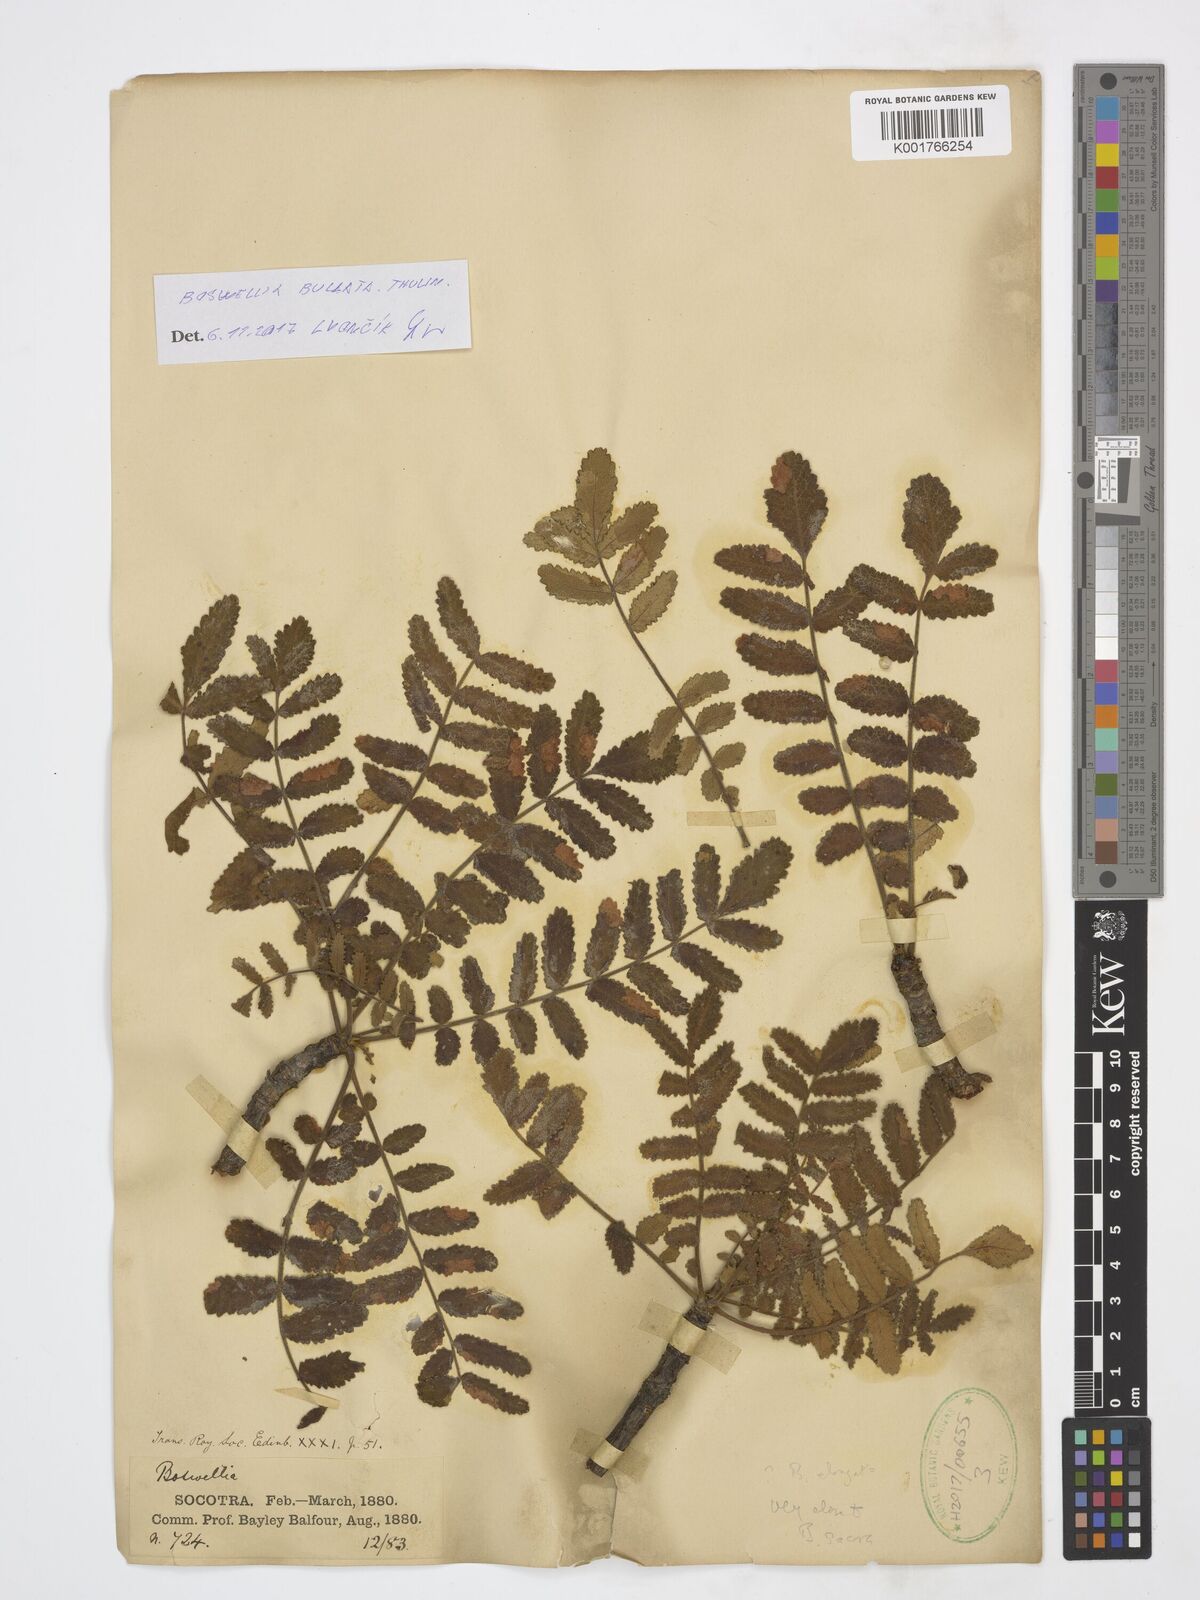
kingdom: Plantae
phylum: Tracheophyta
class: Magnoliopsida
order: Sapindales
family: Burseraceae
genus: Boswellia
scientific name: Boswellia bullata
